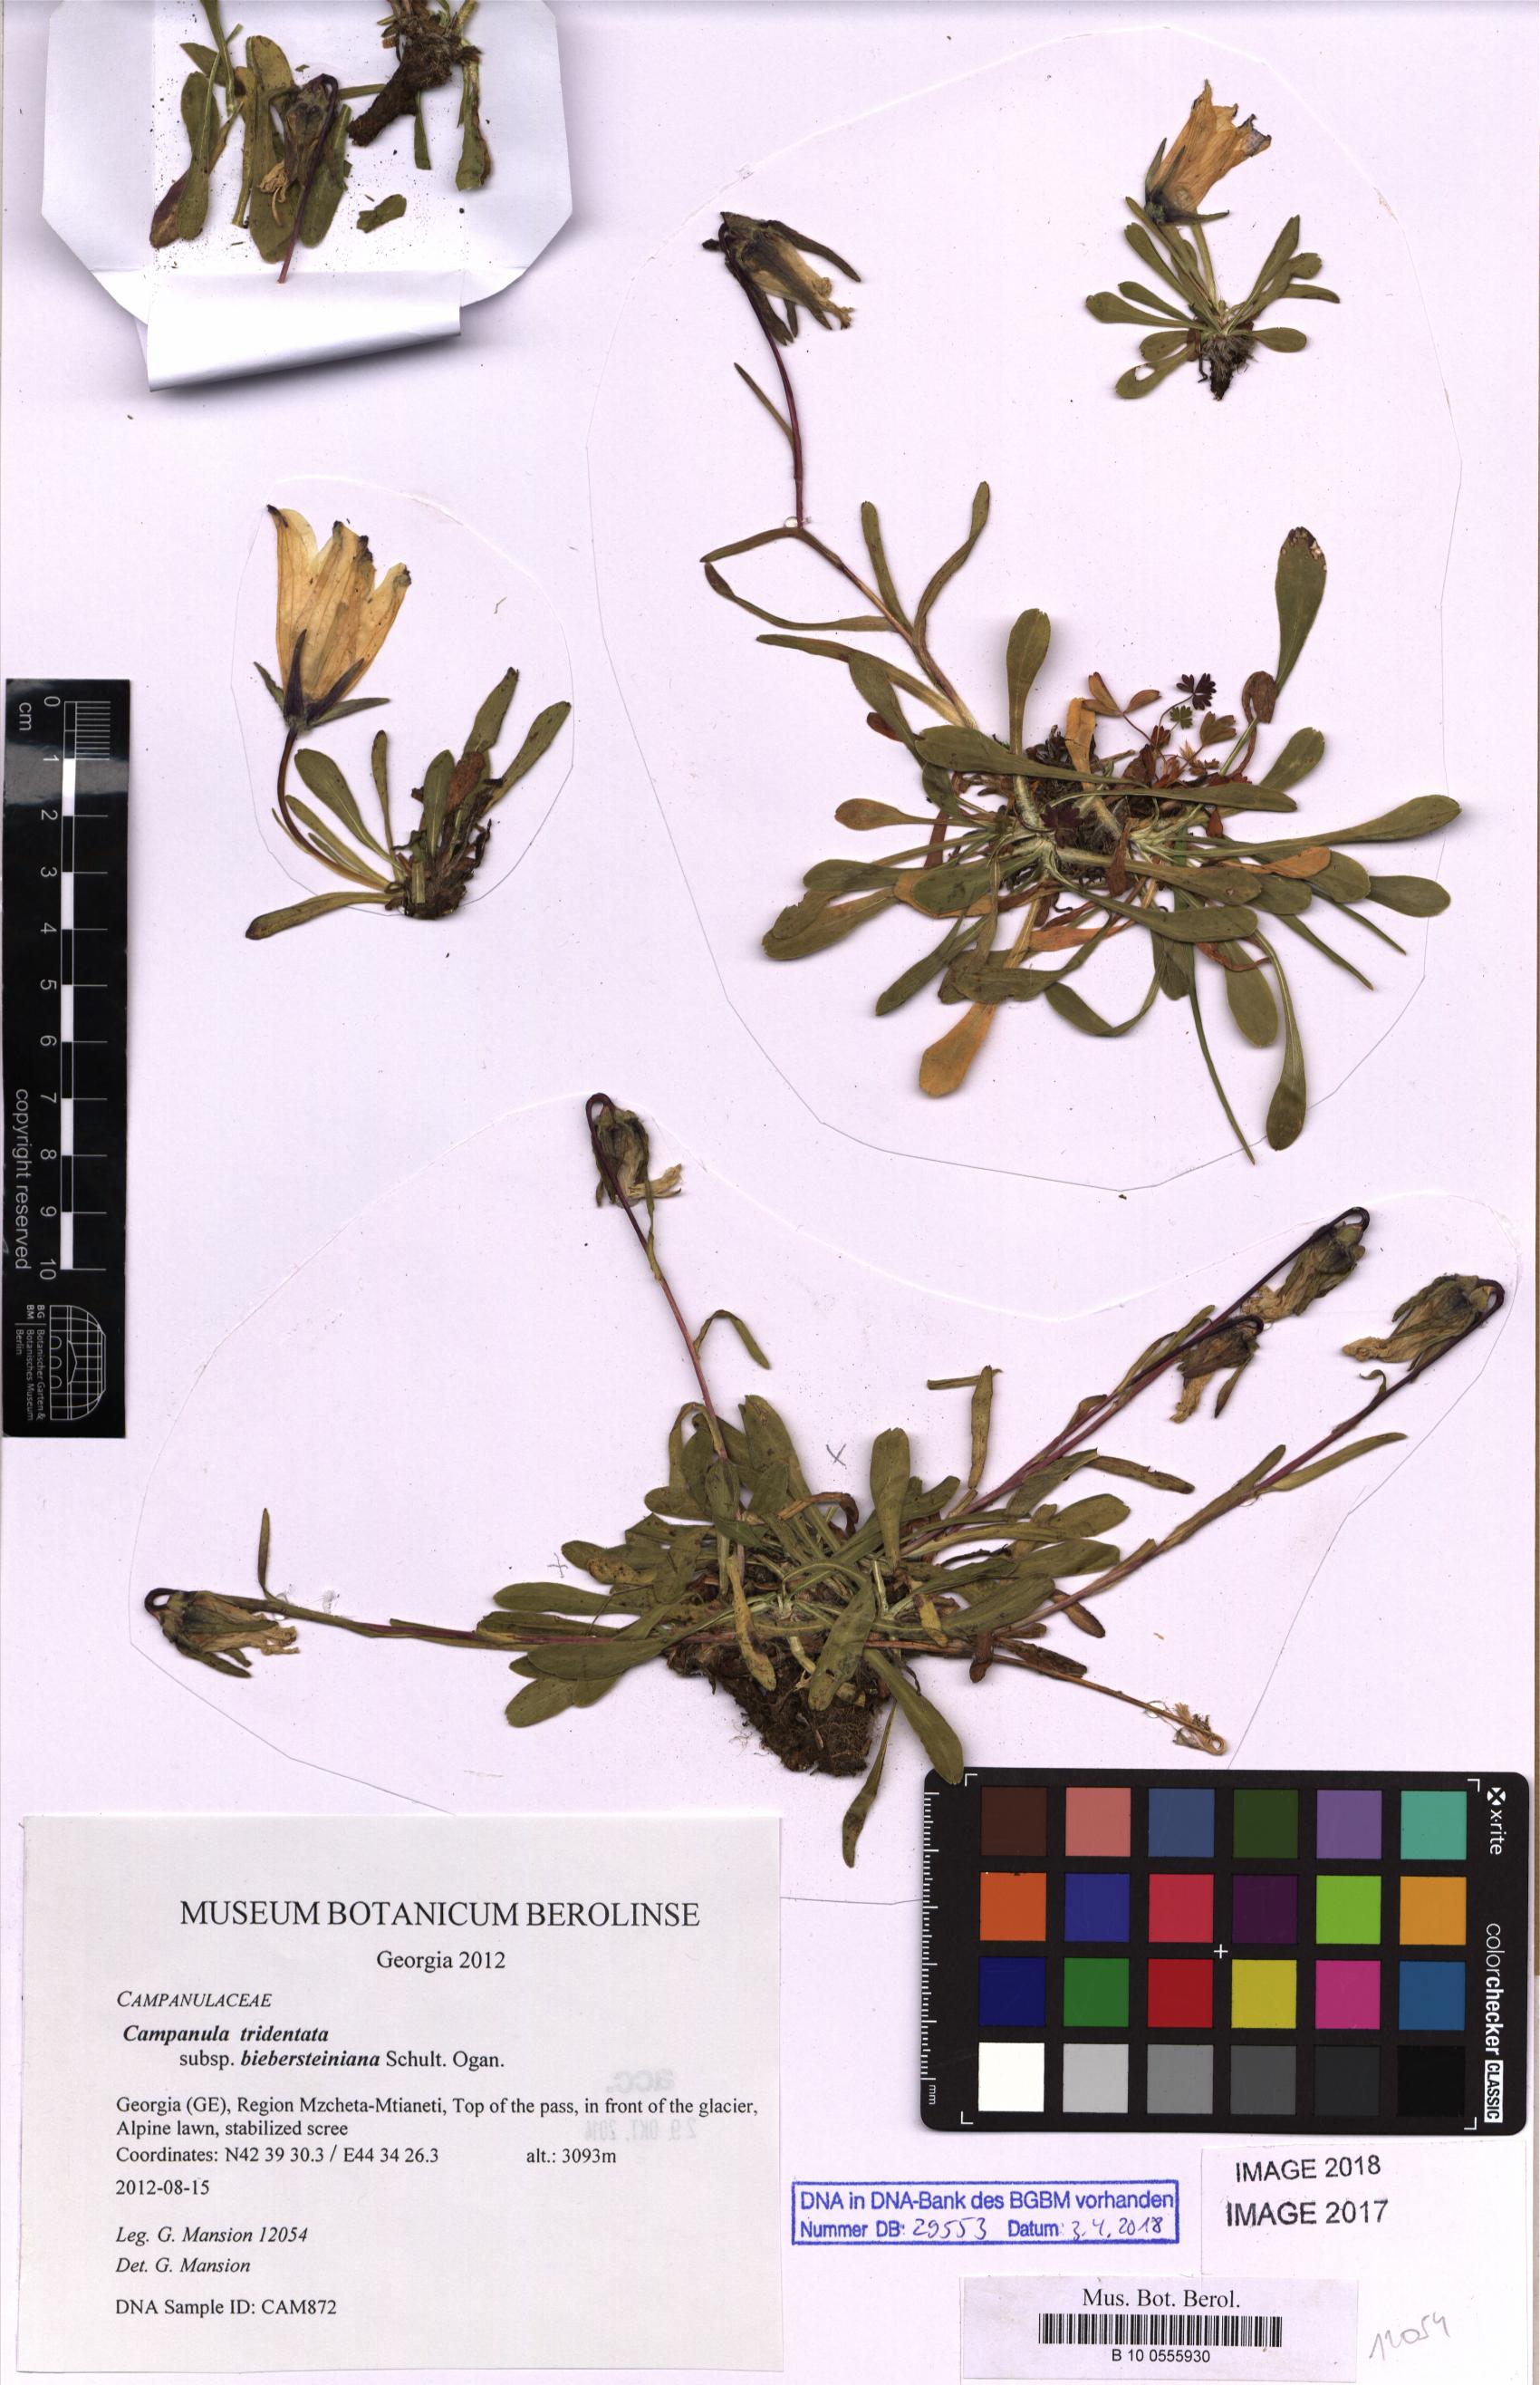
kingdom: Plantae
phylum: Tracheophyta
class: Magnoliopsida
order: Asterales
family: Campanulaceae
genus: Campanula
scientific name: Campanula tridentata
